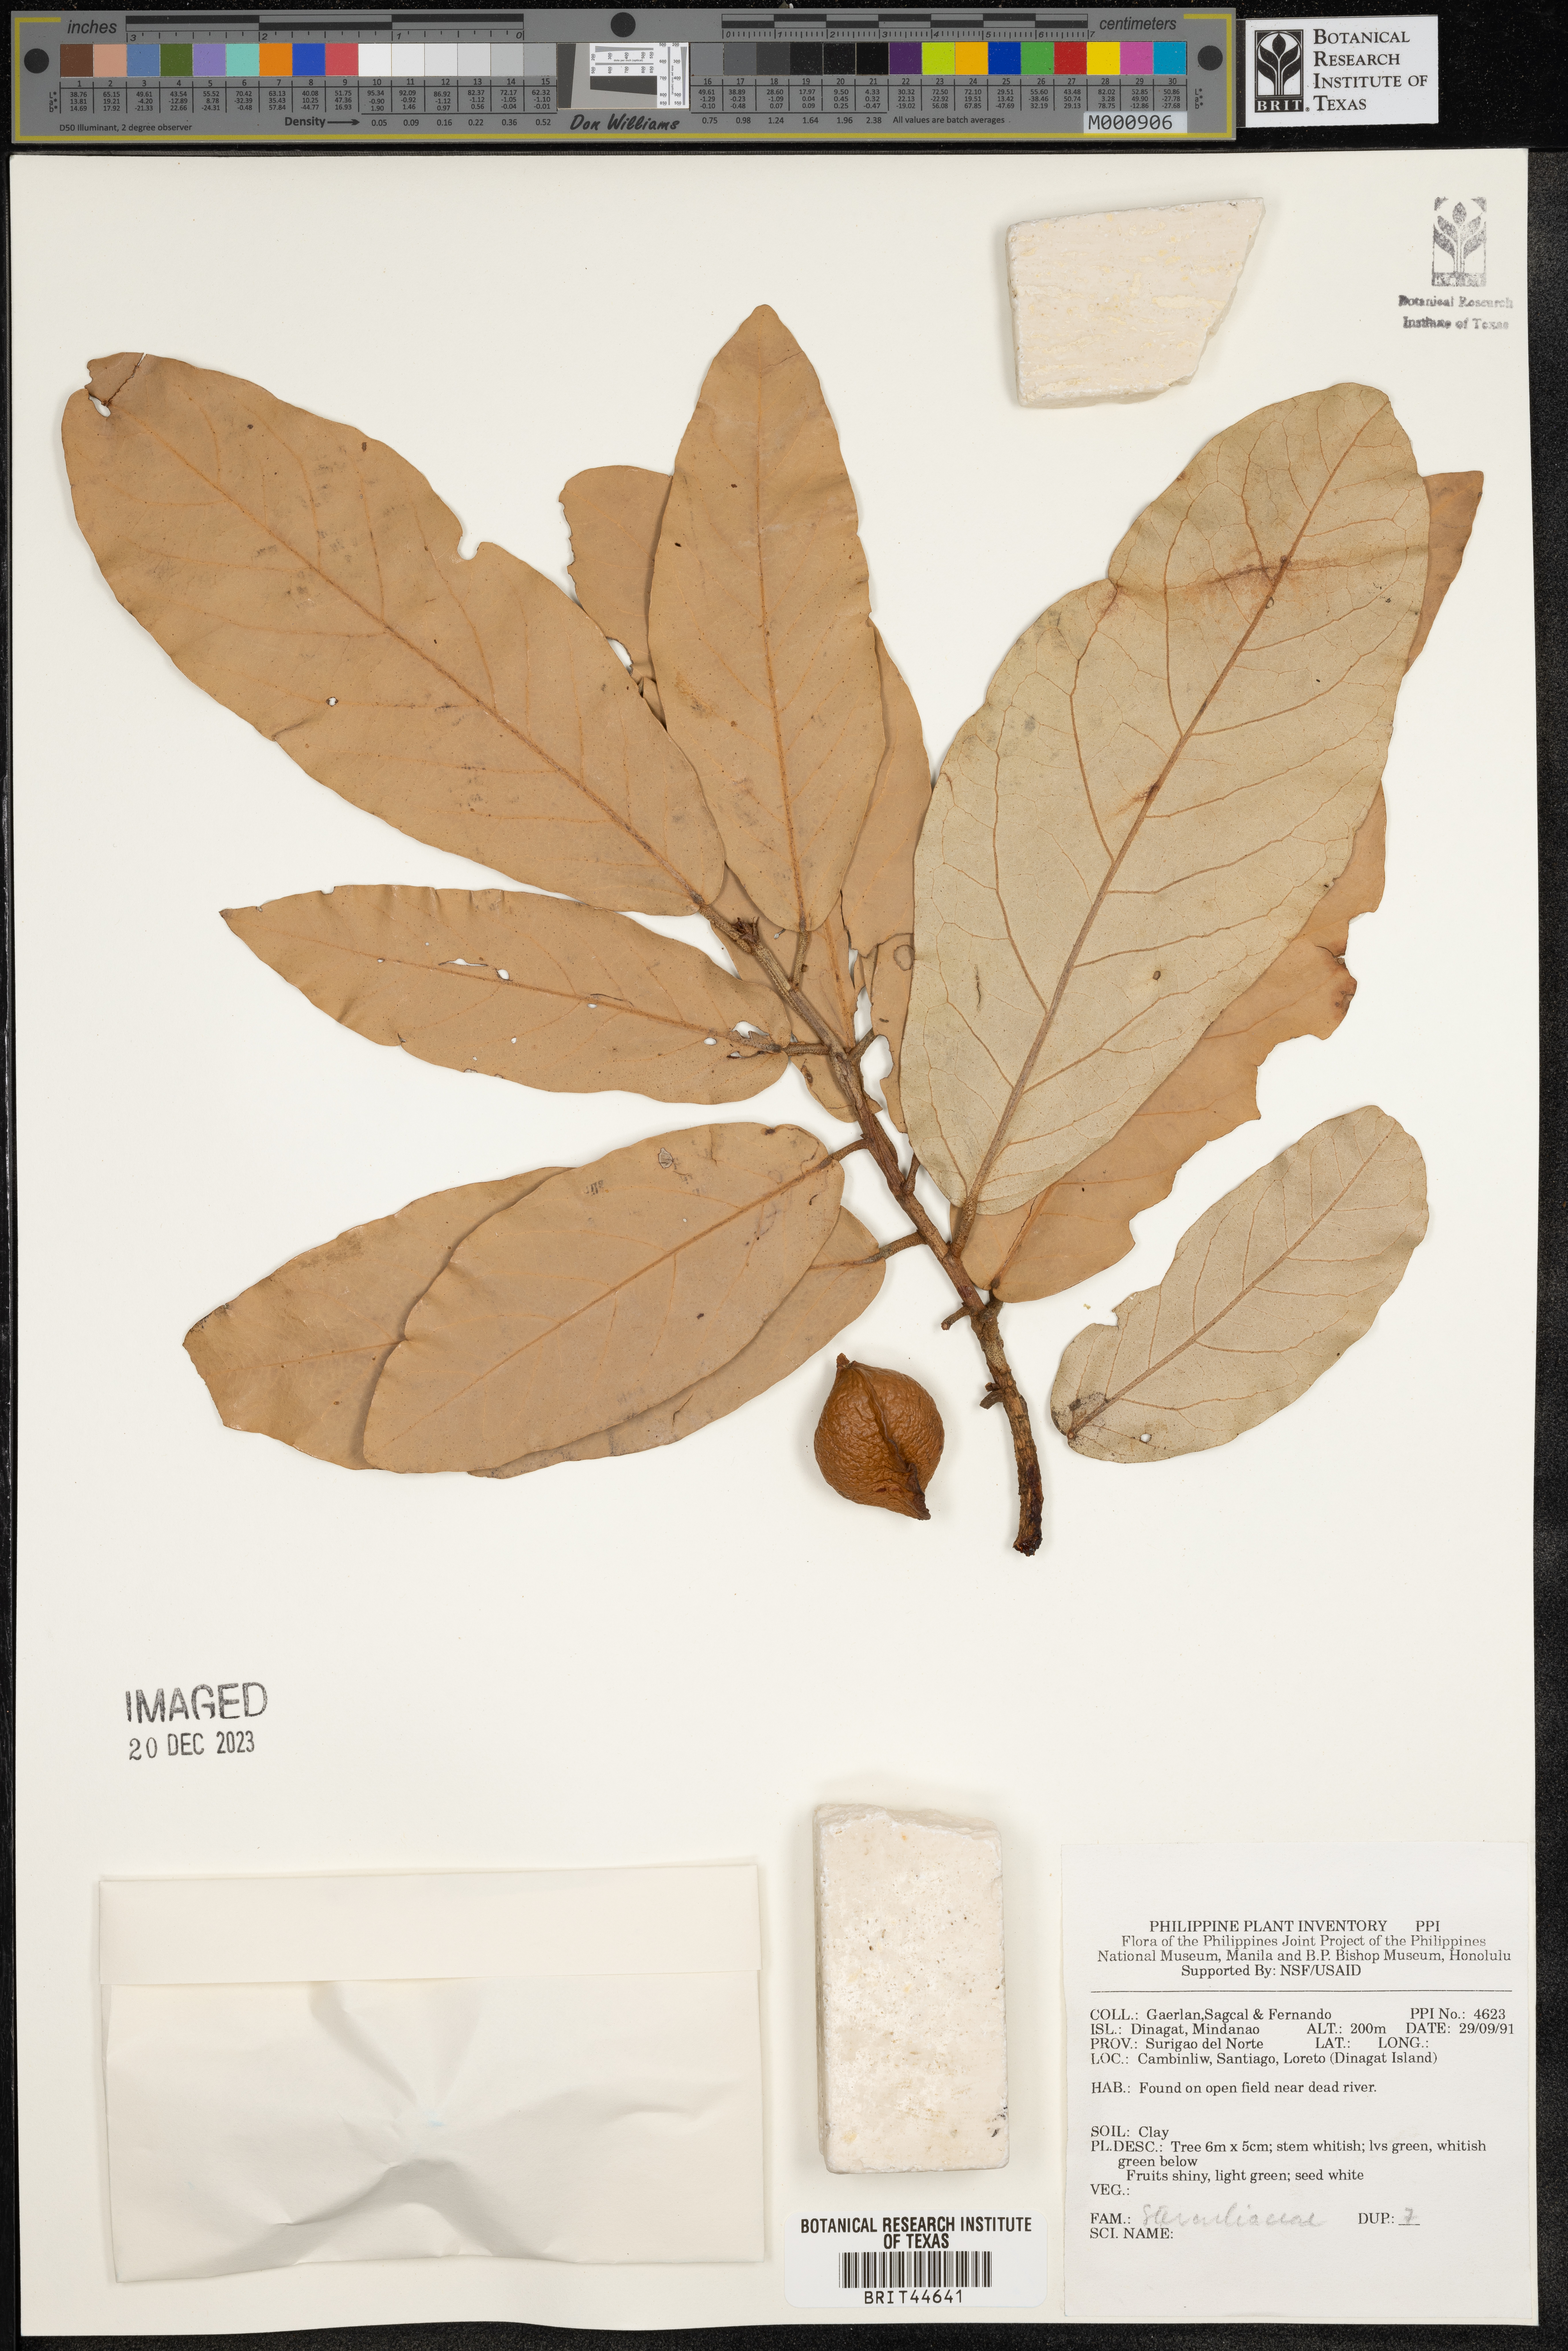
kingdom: Plantae
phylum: Tracheophyta
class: Magnoliopsida
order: Malvales
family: Sterculiaceae
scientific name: Sterculiaceae
